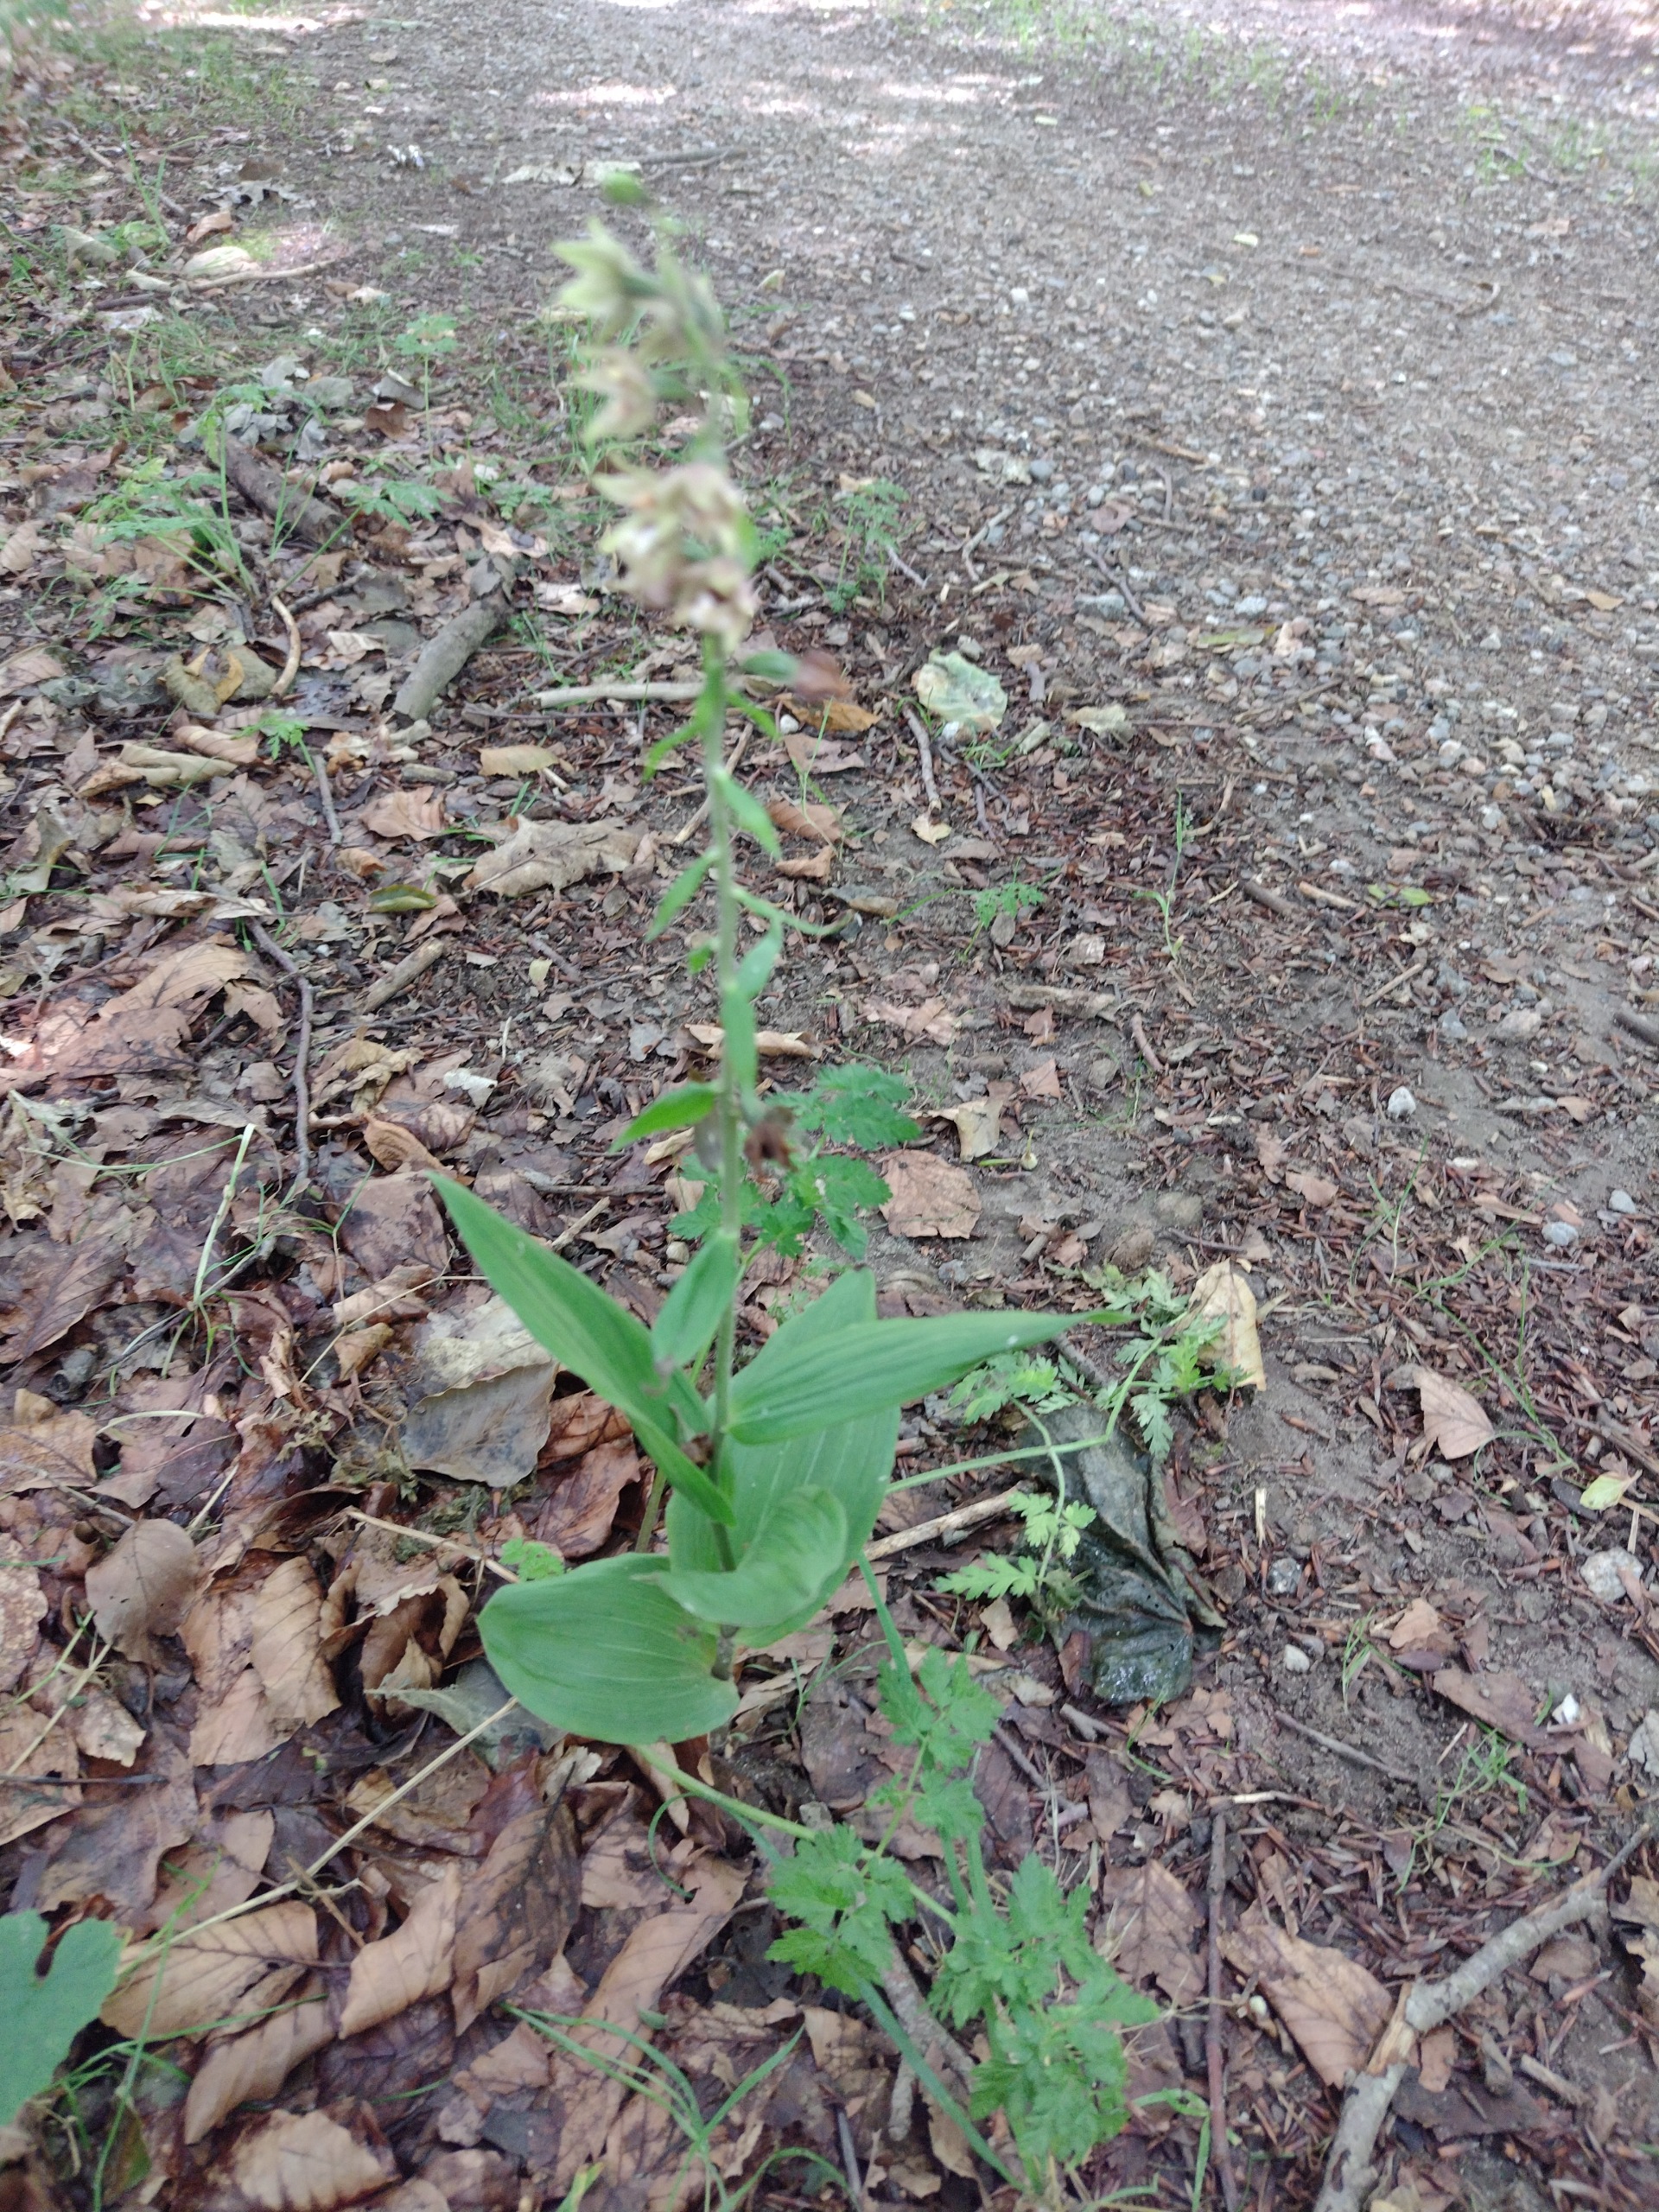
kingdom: Plantae
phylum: Tracheophyta
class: Liliopsida
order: Asparagales
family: Orchidaceae
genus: Epipactis
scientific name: Epipactis helleborine
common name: Skov-hullæbe
